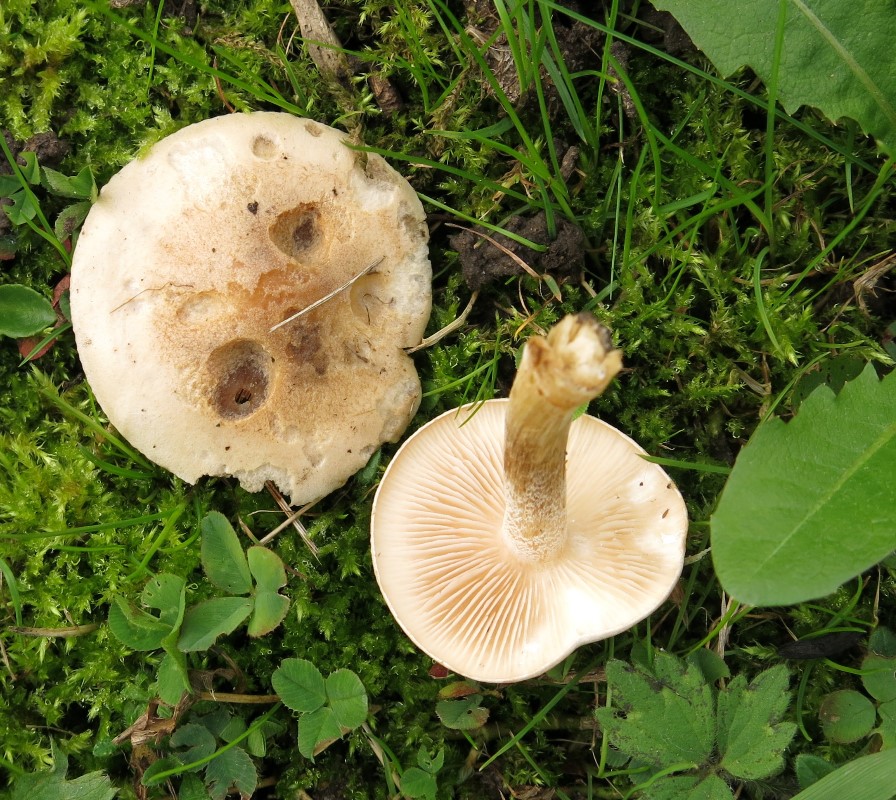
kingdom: Fungi
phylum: Basidiomycota
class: Agaricomycetes
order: Agaricales
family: Hymenogastraceae
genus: Hebeloma
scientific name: Hebeloma
